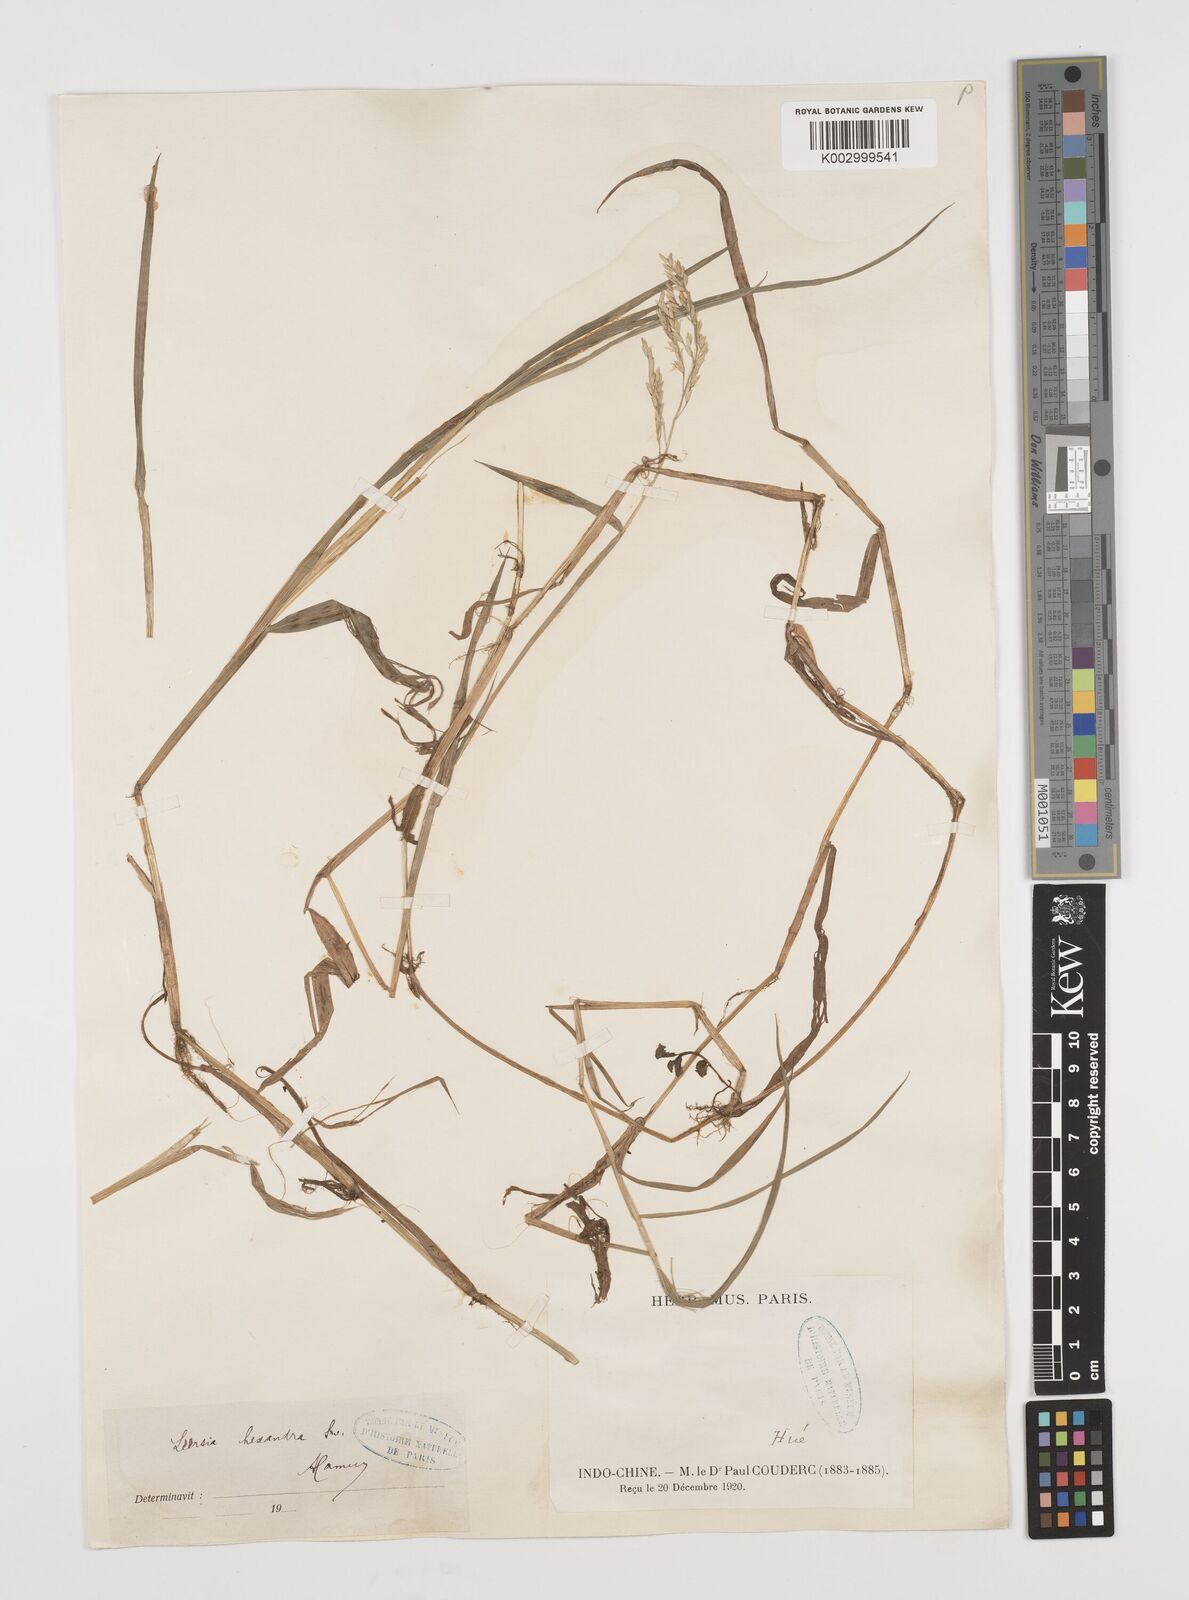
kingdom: Plantae
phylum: Tracheophyta
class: Liliopsida
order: Poales
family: Poaceae
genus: Leersia
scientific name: Leersia hexandra
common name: Southern cut grass
